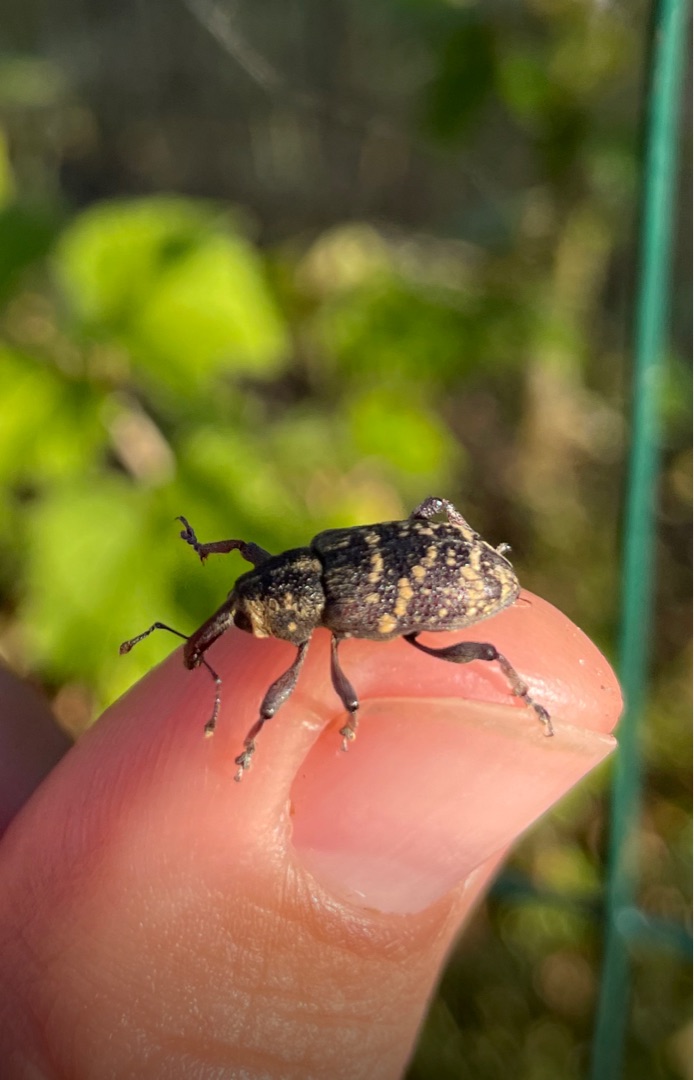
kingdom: Animalia
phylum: Arthropoda
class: Insecta
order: Coleoptera
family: Curculionidae
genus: Hylobius
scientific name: Hylobius abietis
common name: Stor nåletræsnudebille
